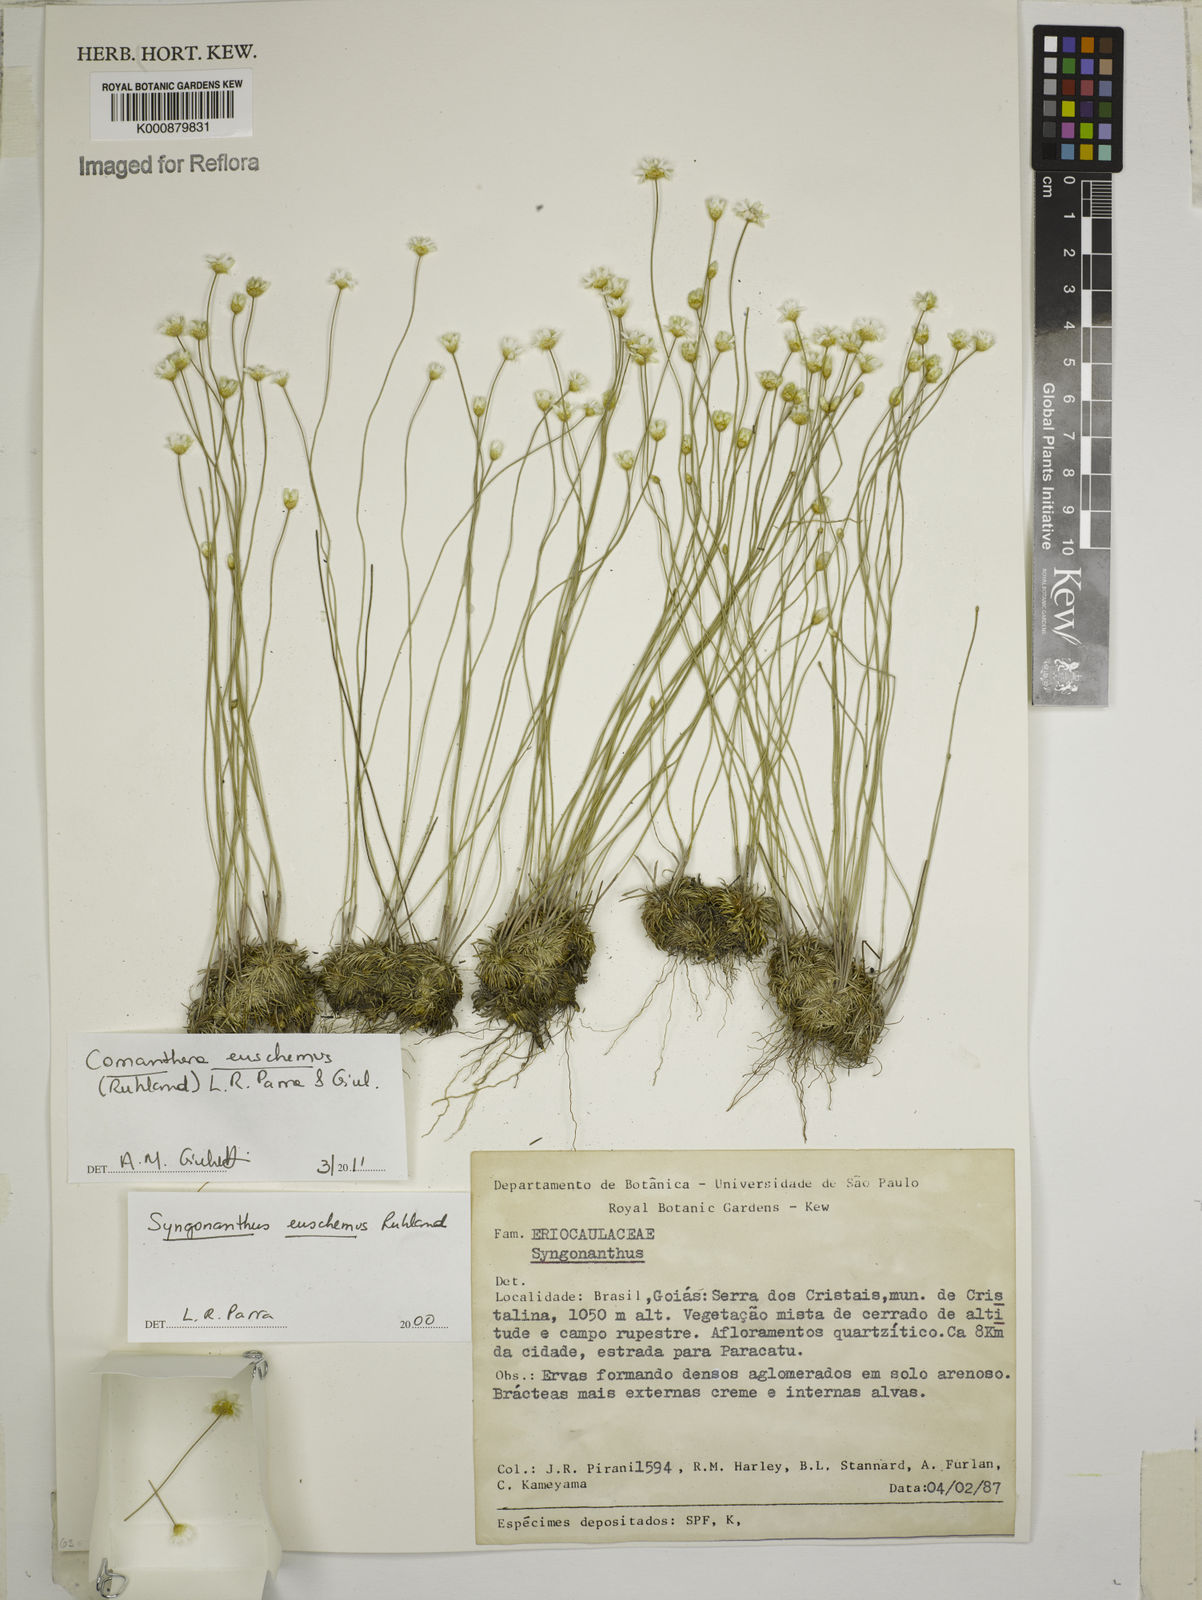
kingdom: Plantae
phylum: Tracheophyta
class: Liliopsida
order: Poales
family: Eriocaulaceae
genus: Comanthera
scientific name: Comanthera euschemus
